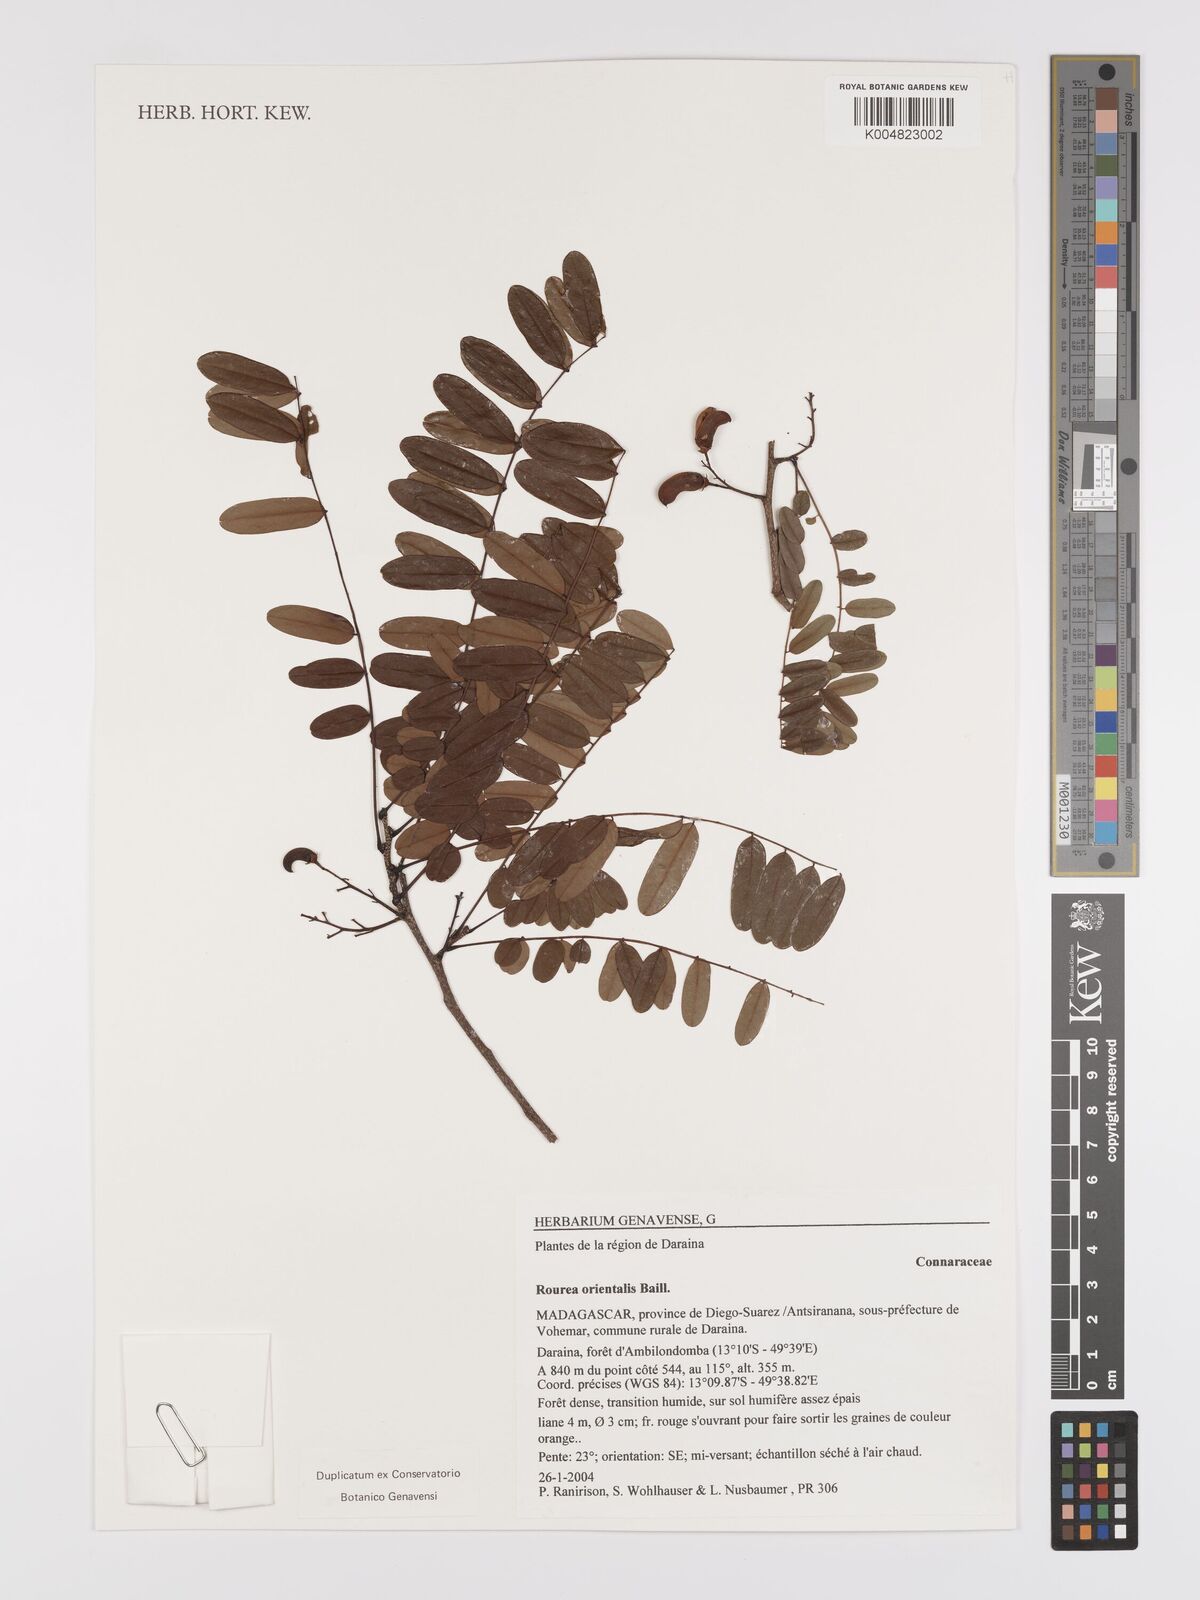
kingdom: Plantae
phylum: Tracheophyta
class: Magnoliopsida
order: Oxalidales
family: Connaraceae
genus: Rourea
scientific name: Rourea orientalis
